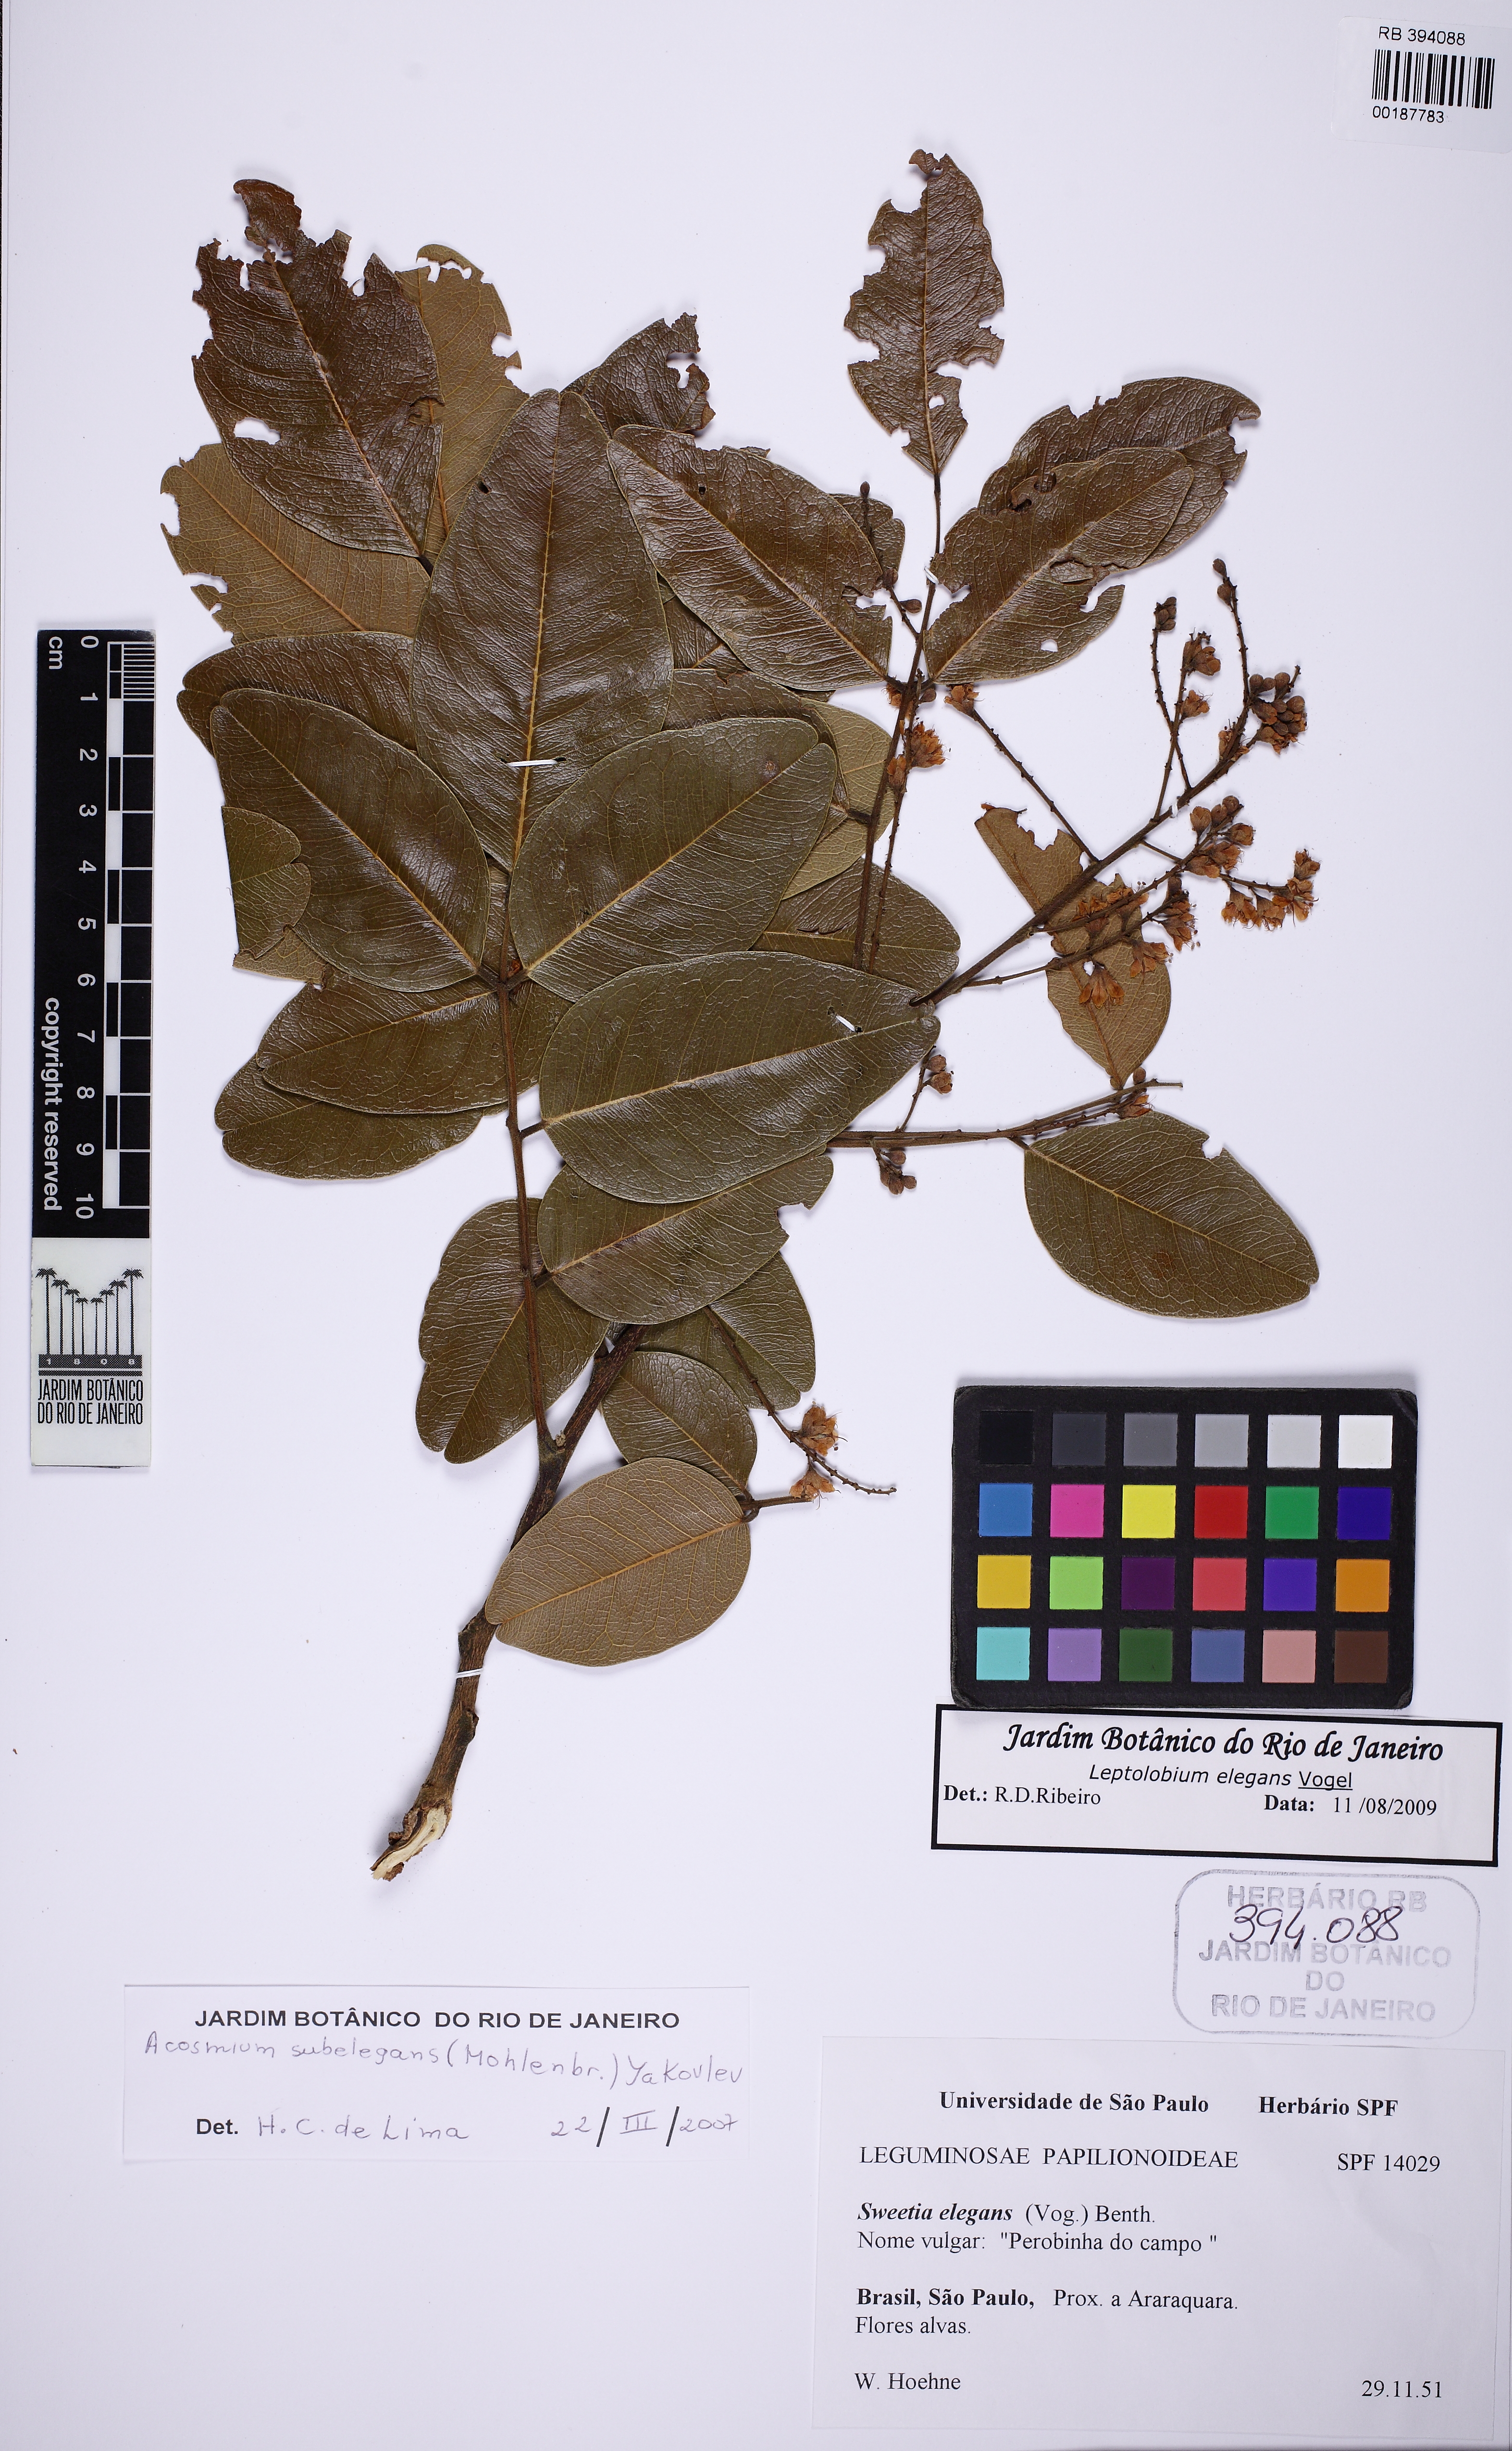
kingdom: Plantae
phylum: Tracheophyta
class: Magnoliopsida
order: Fabales
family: Fabaceae
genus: Leptolobium
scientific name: Leptolobium elegans
